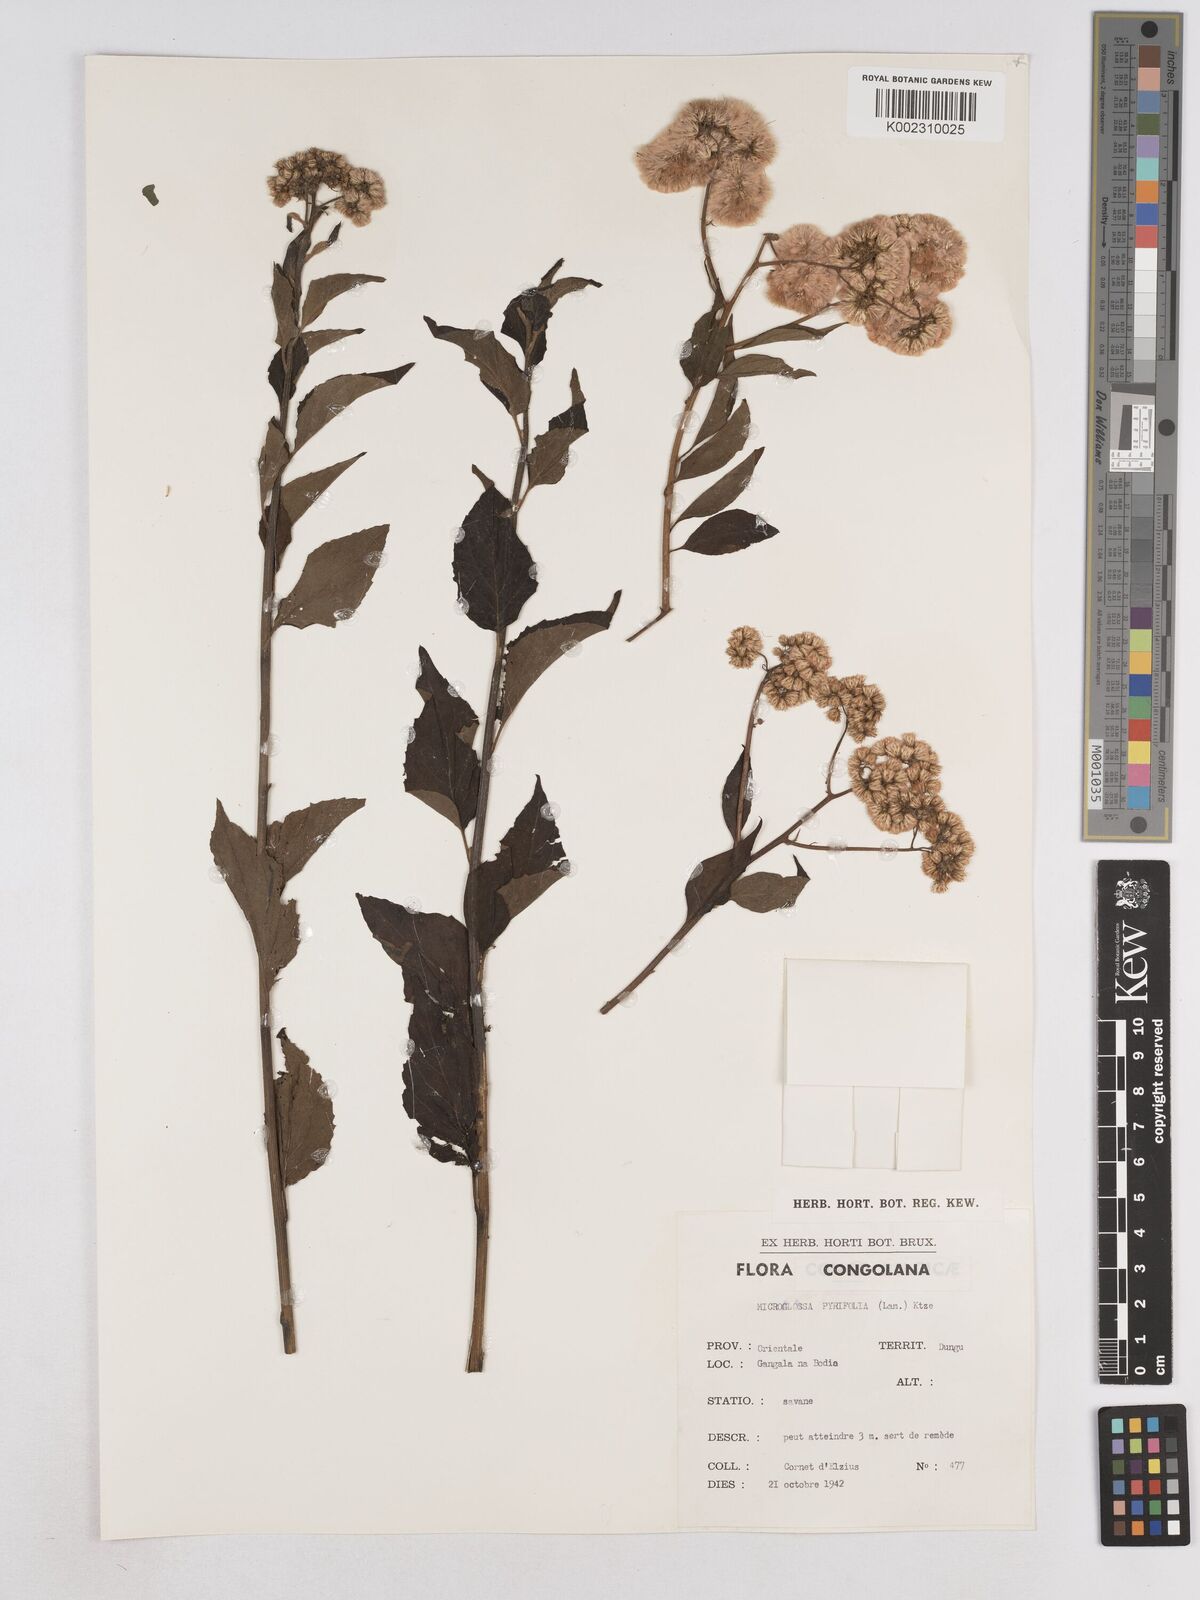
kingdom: Plantae
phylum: Tracheophyta
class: Magnoliopsida
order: Asterales
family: Asteraceae
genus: Microglossa
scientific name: Microglossa pyrifolia
